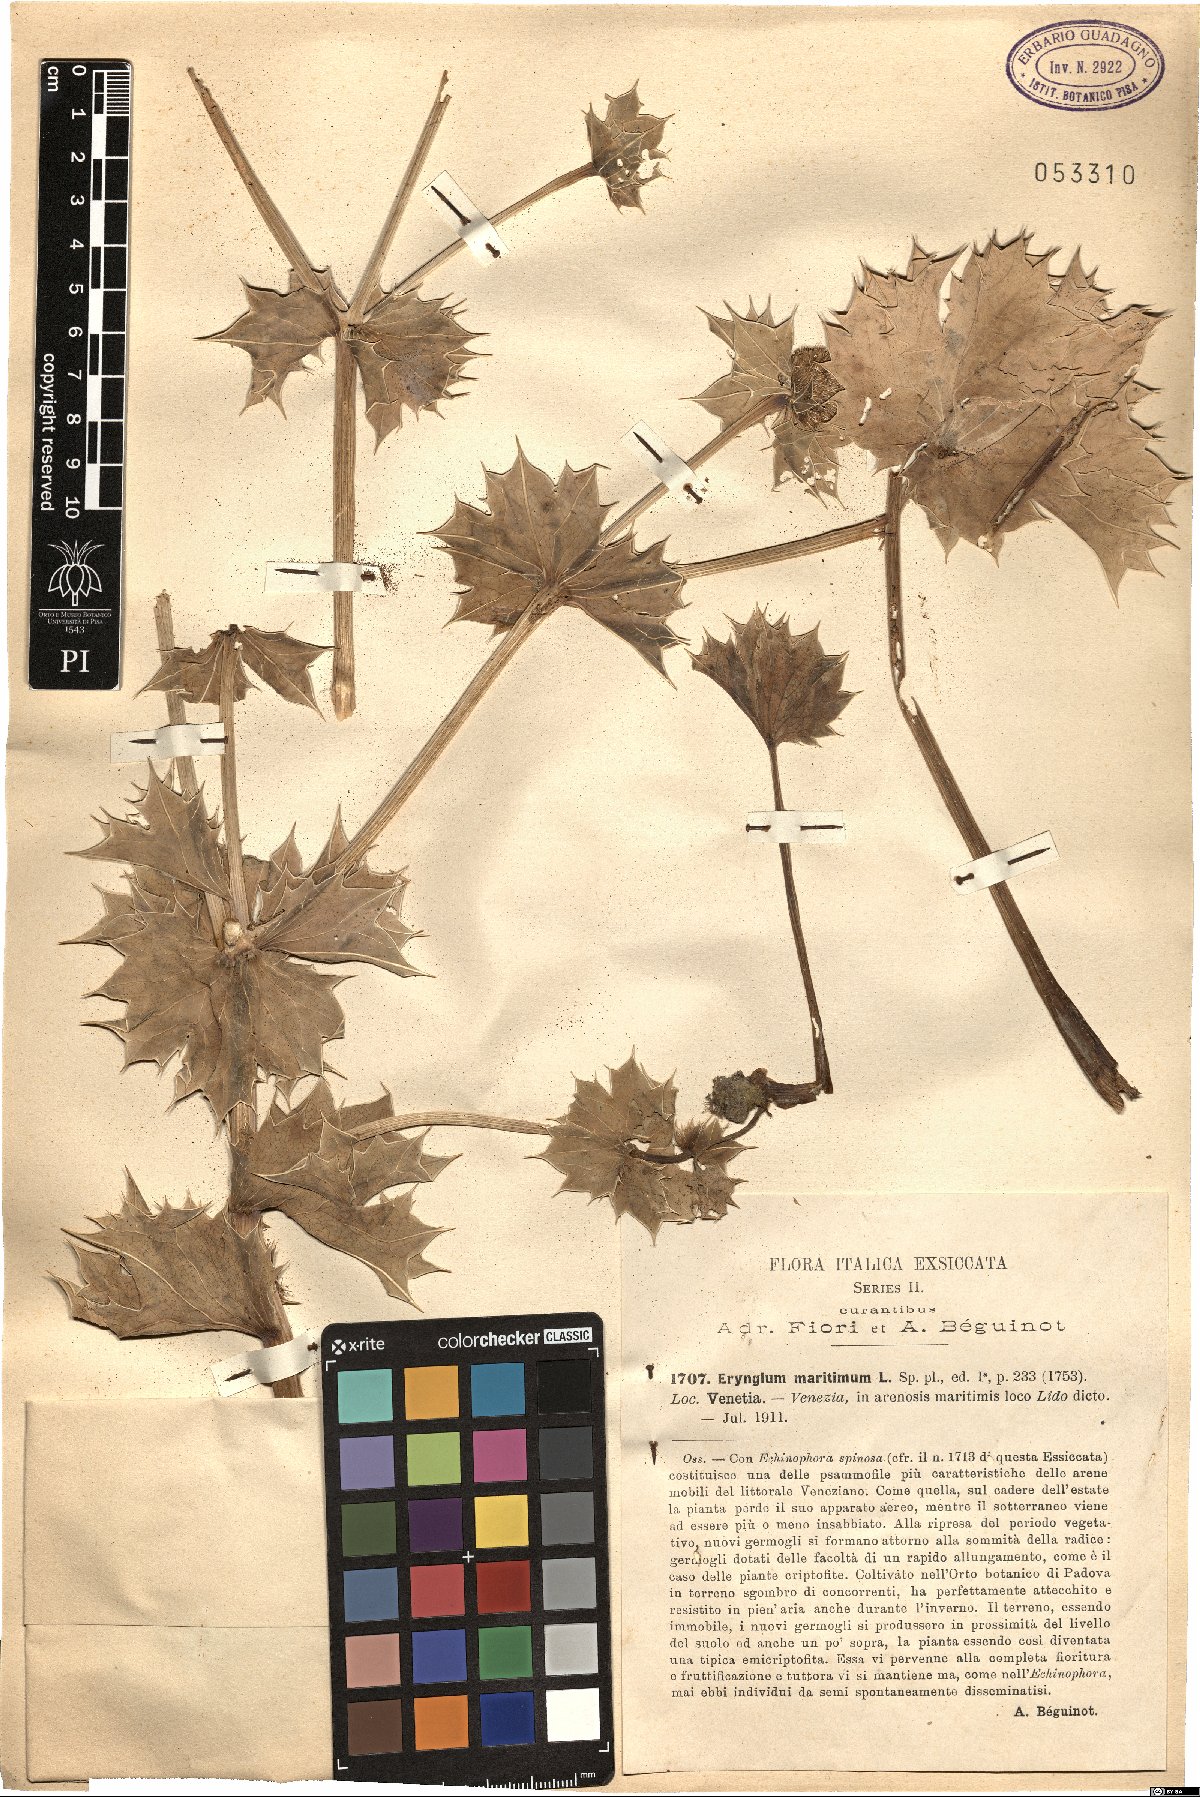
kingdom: Plantae
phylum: Tracheophyta
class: Magnoliopsida
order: Apiales
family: Apiaceae
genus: Eryngium
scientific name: Eryngium maritimum
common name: Sea-holly
